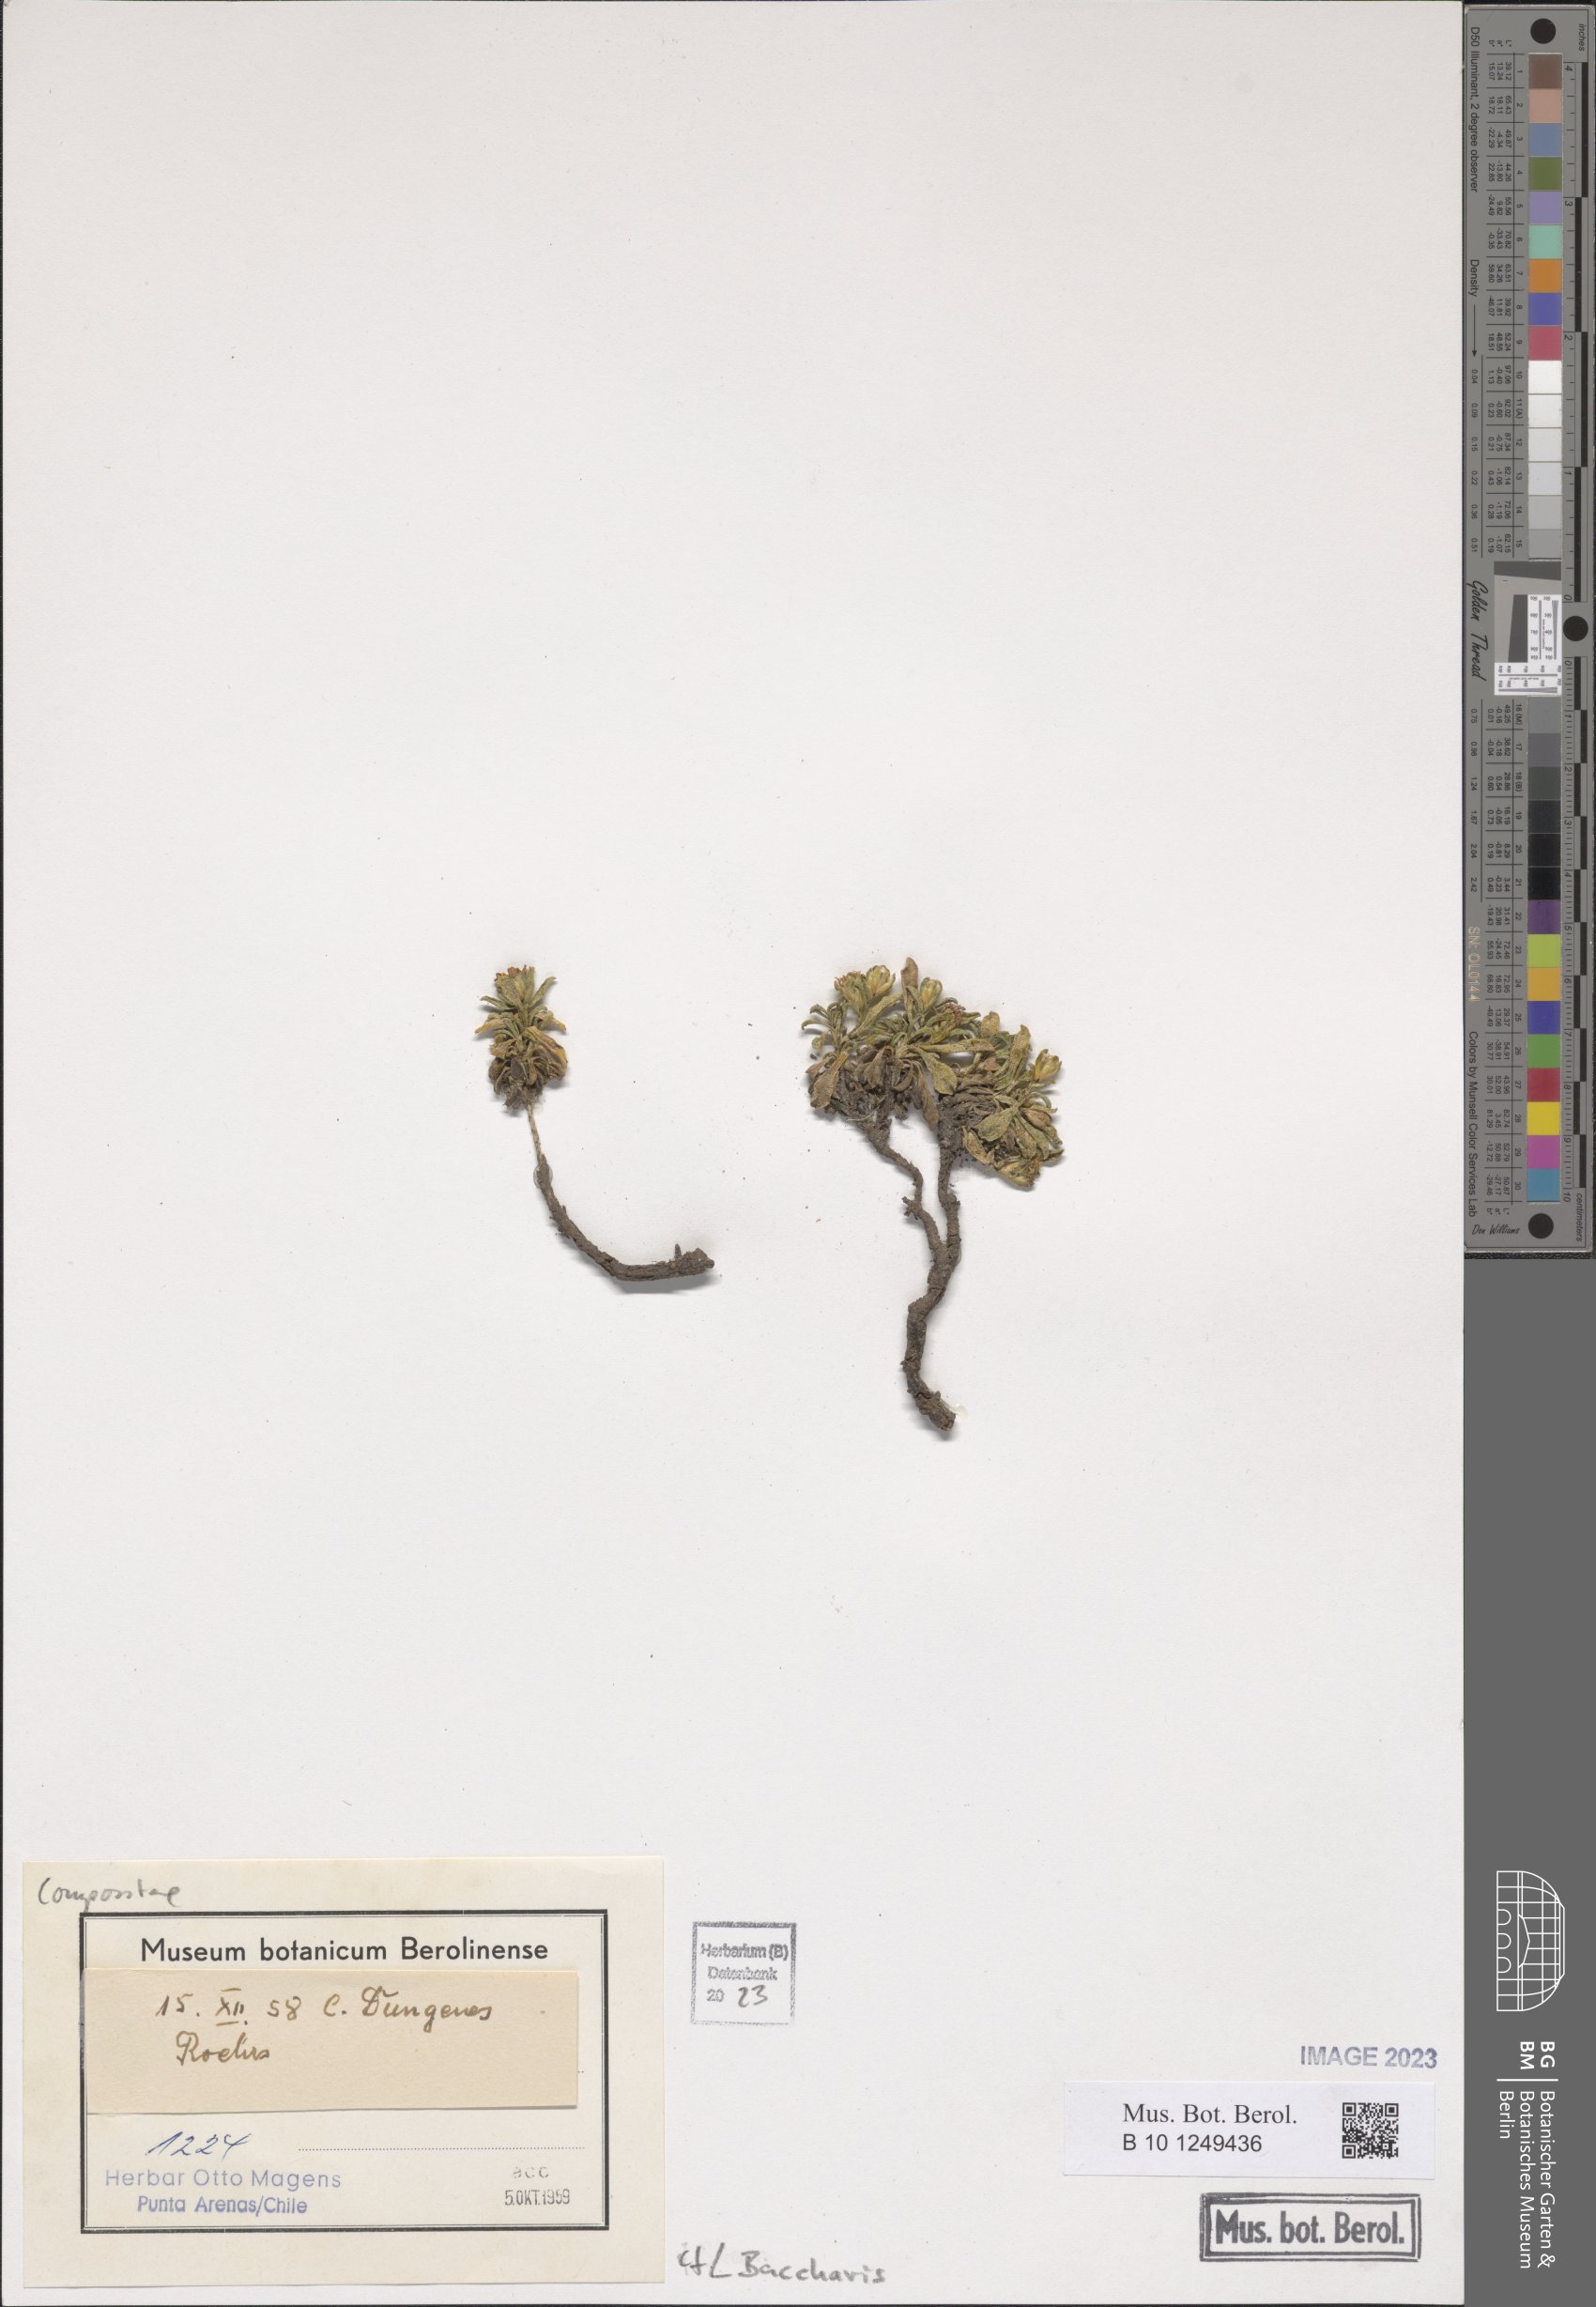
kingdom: Plantae
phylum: Tracheophyta
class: Magnoliopsida
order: Asterales
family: Asteraceae
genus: Baccharis
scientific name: Baccharis
